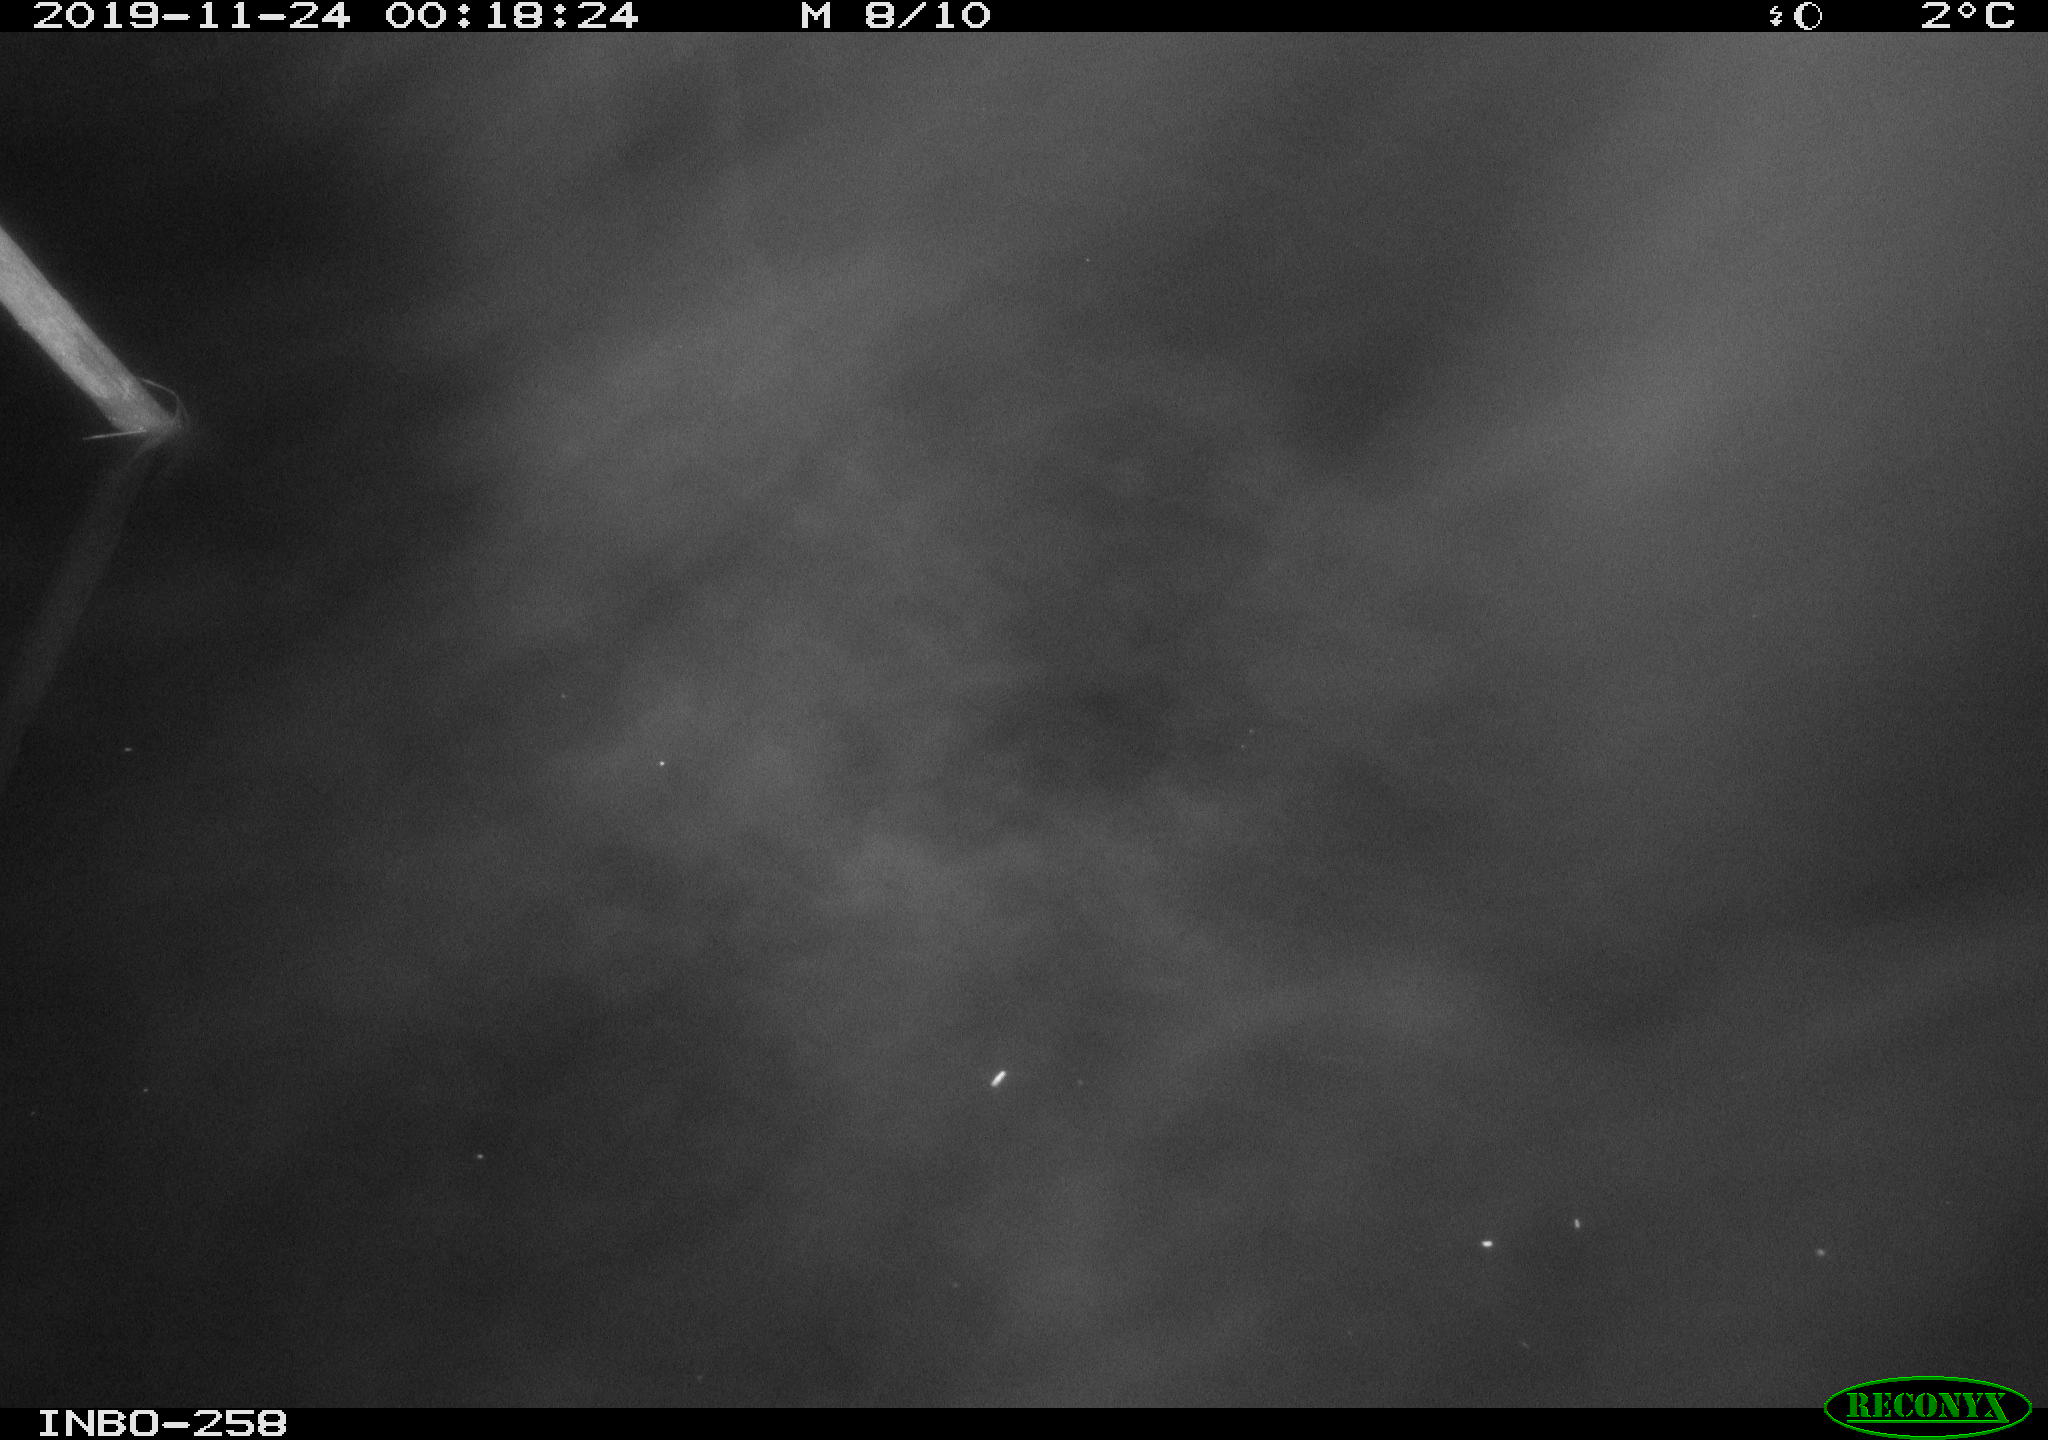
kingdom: Animalia
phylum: Chordata
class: Aves
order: Anseriformes
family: Anatidae
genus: Anas
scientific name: Anas platyrhynchos
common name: Mallard
